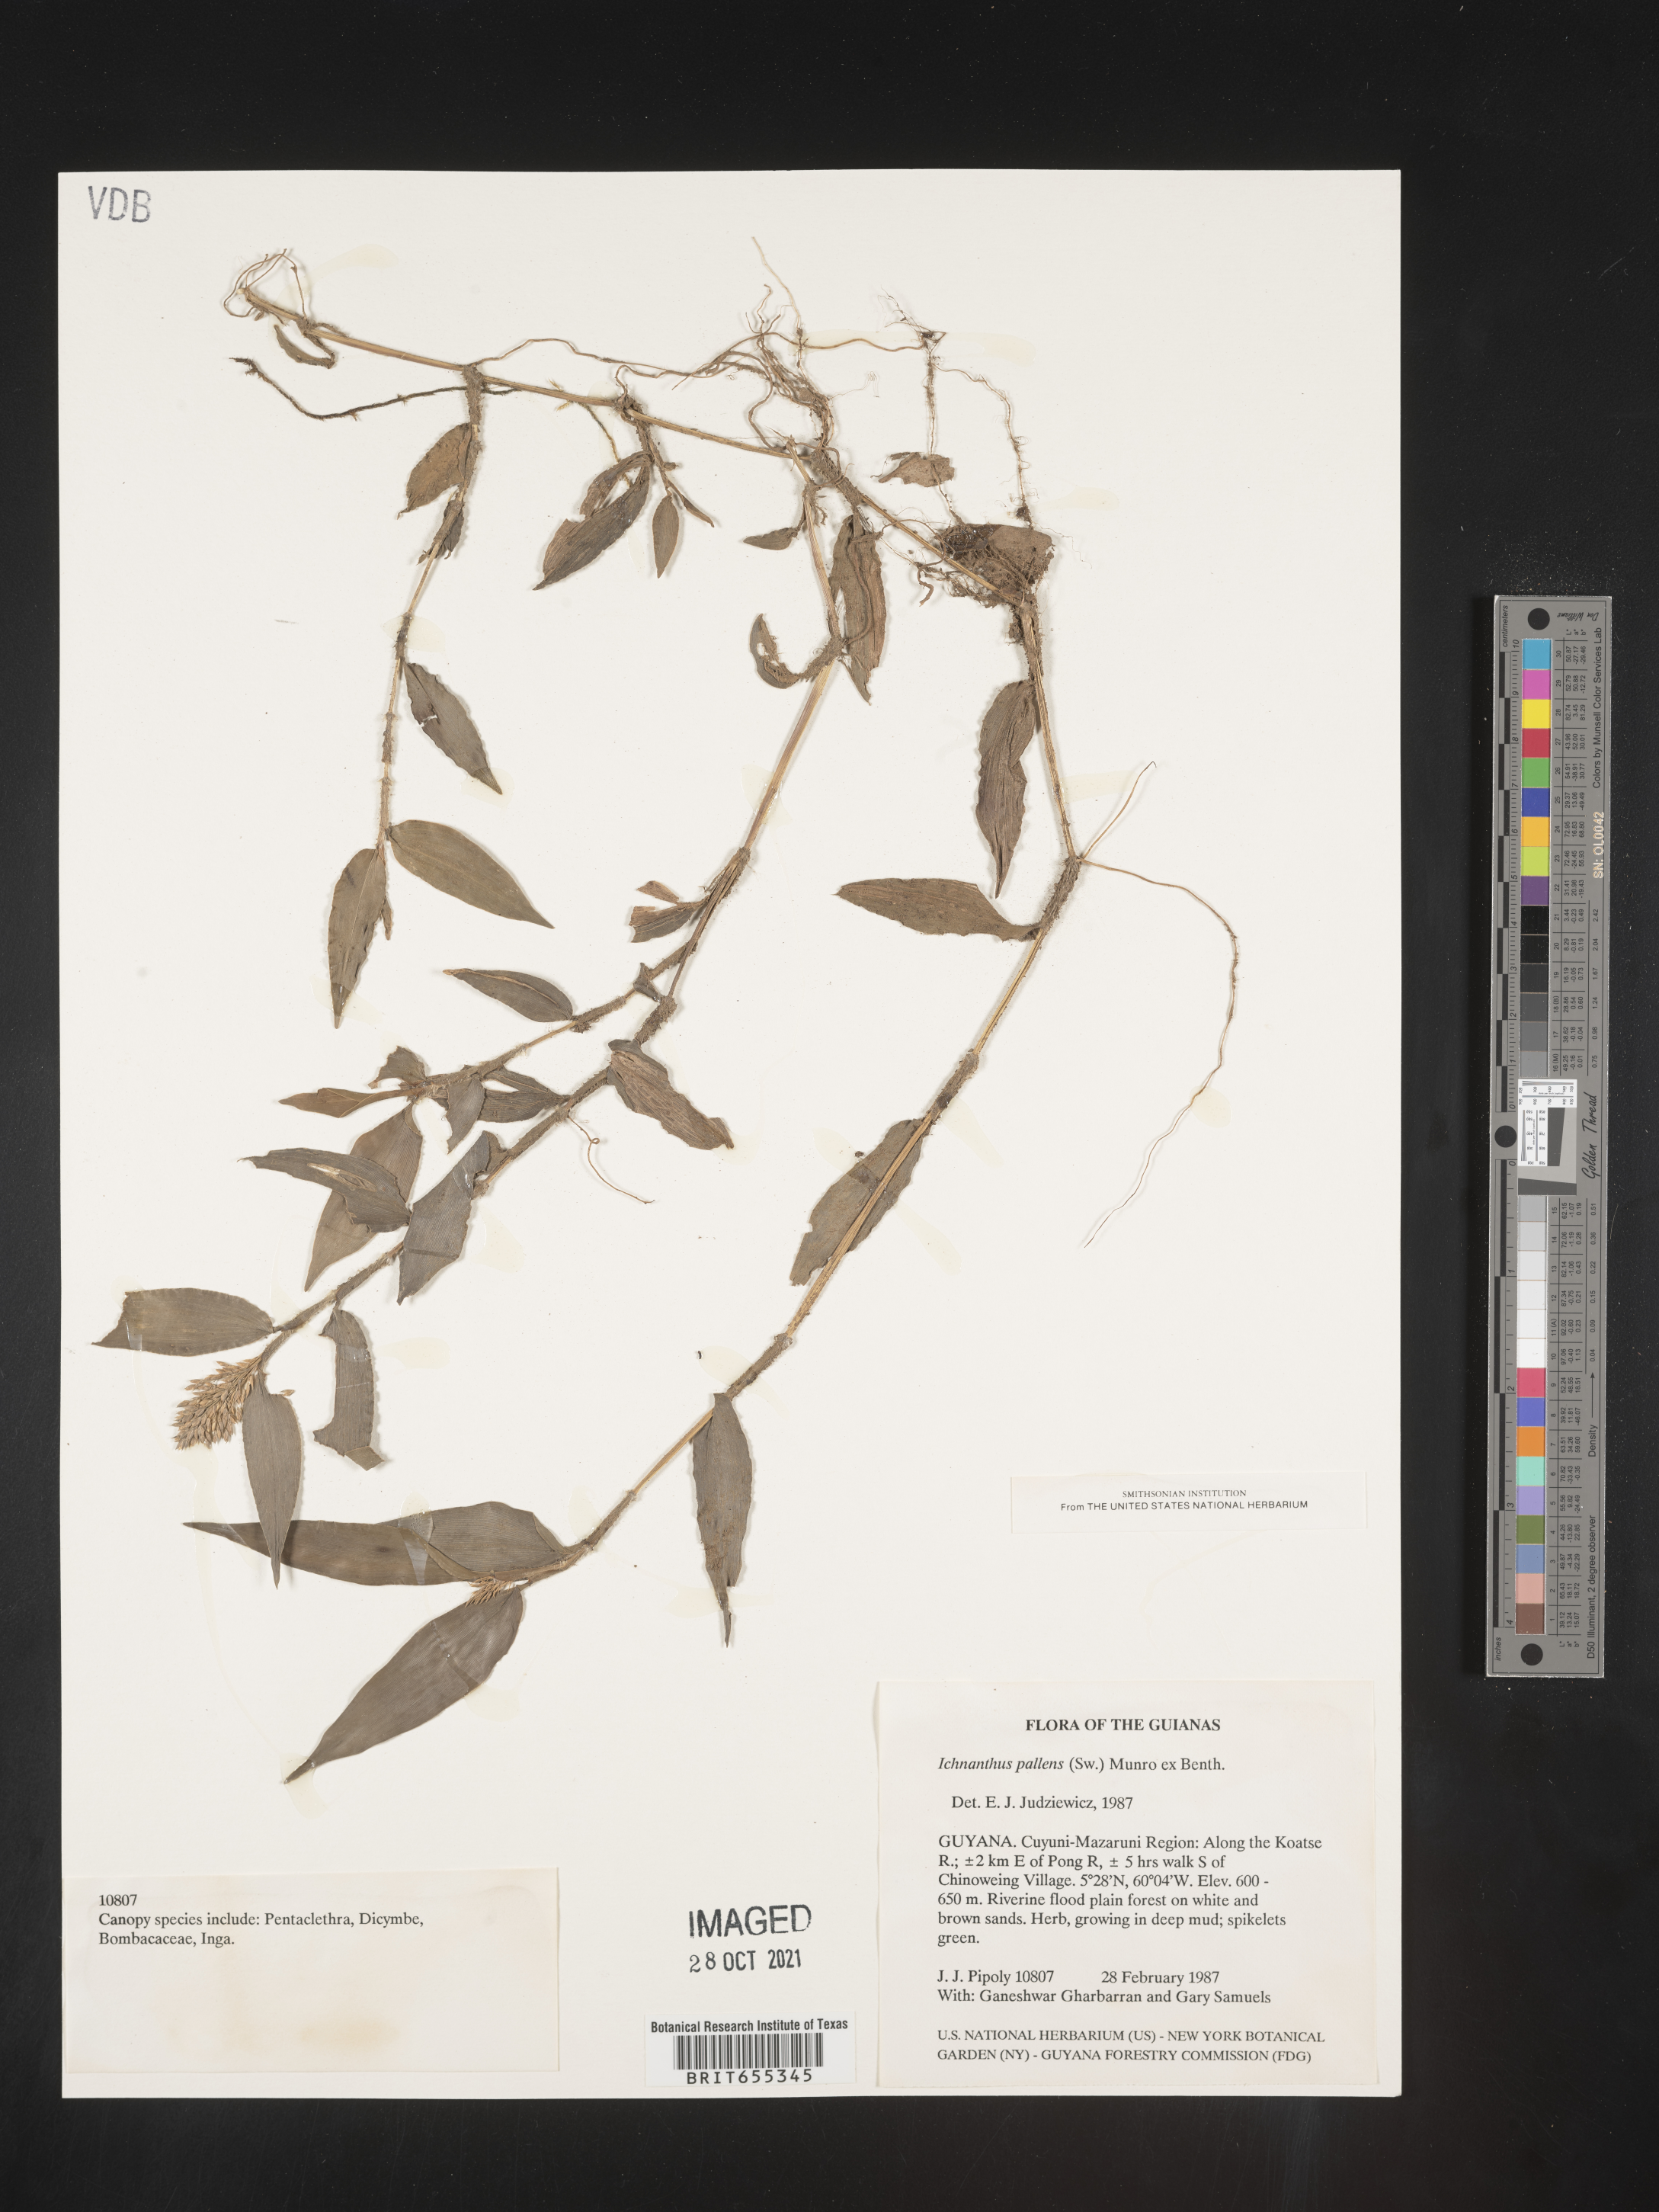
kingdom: Plantae
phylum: Tracheophyta
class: Liliopsida
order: Poales
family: Poaceae
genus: Ichnanthus
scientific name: Ichnanthus
